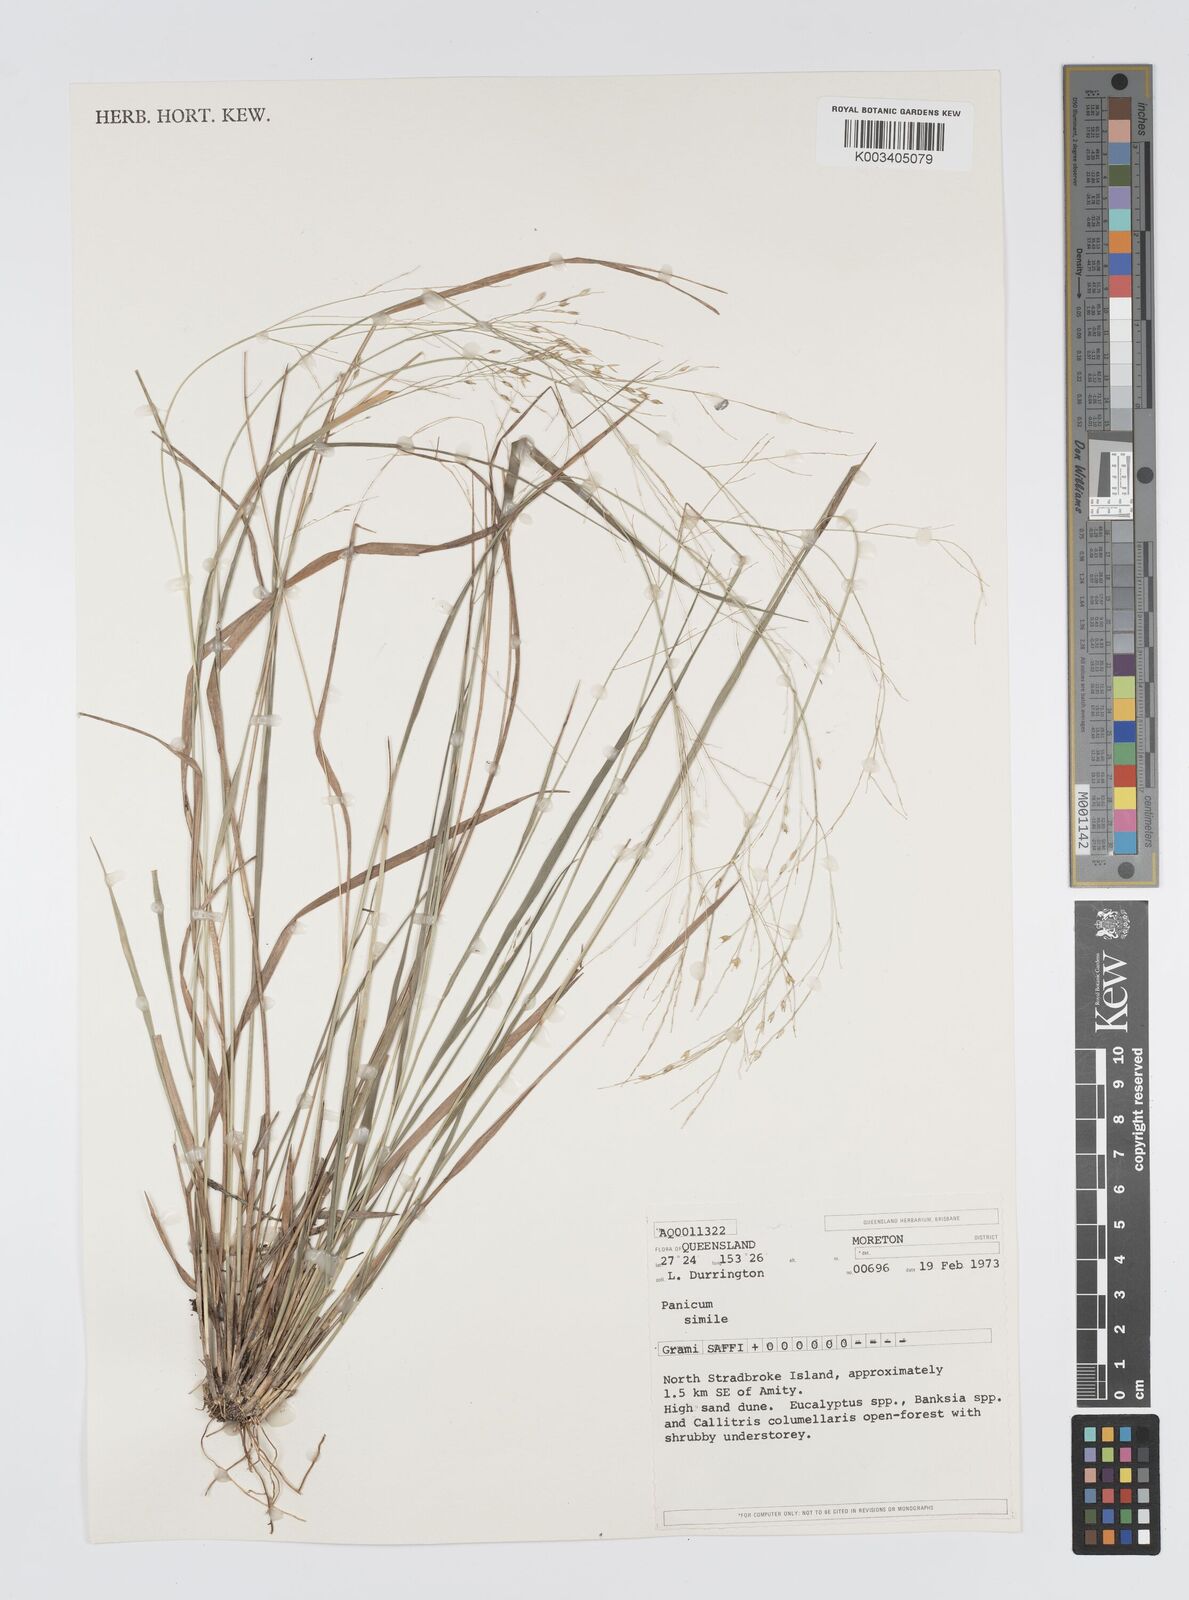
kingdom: Plantae
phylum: Tracheophyta
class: Liliopsida
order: Poales
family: Poaceae
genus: Panicum
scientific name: Panicum simile
